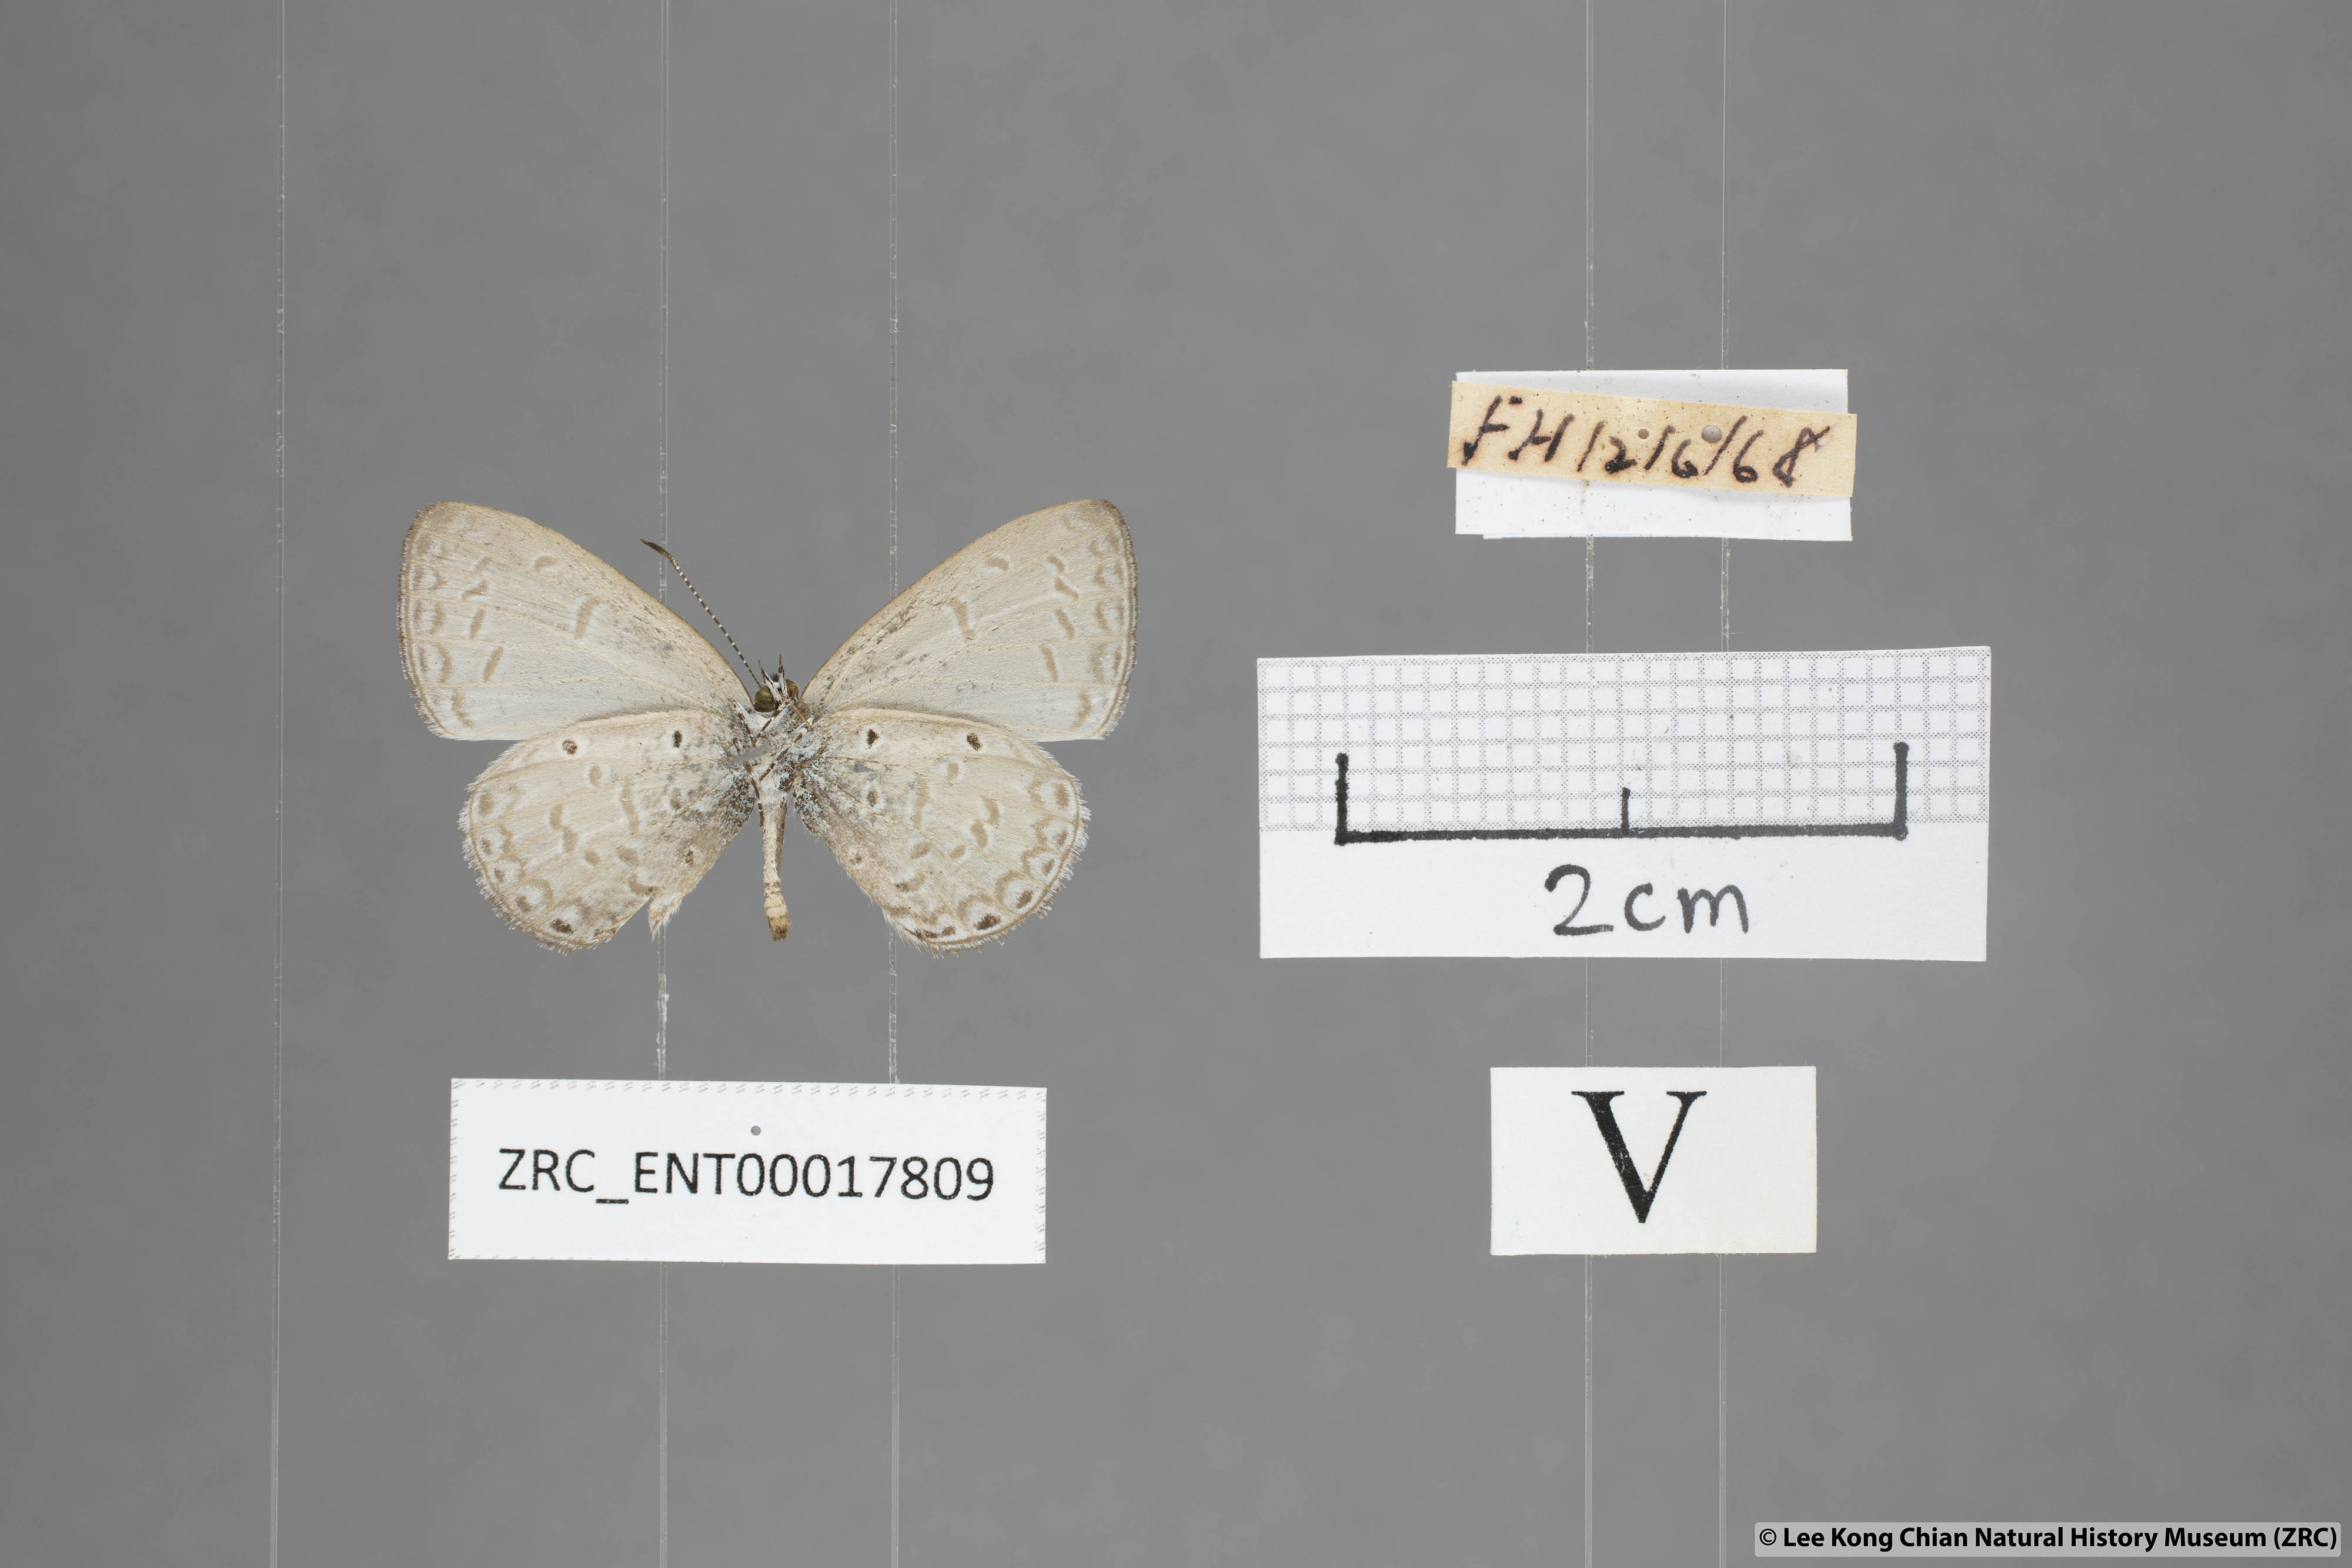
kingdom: Animalia
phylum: Arthropoda
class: Insecta
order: Lepidoptera
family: Lycaenidae
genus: Monodontides
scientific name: Monodontides
